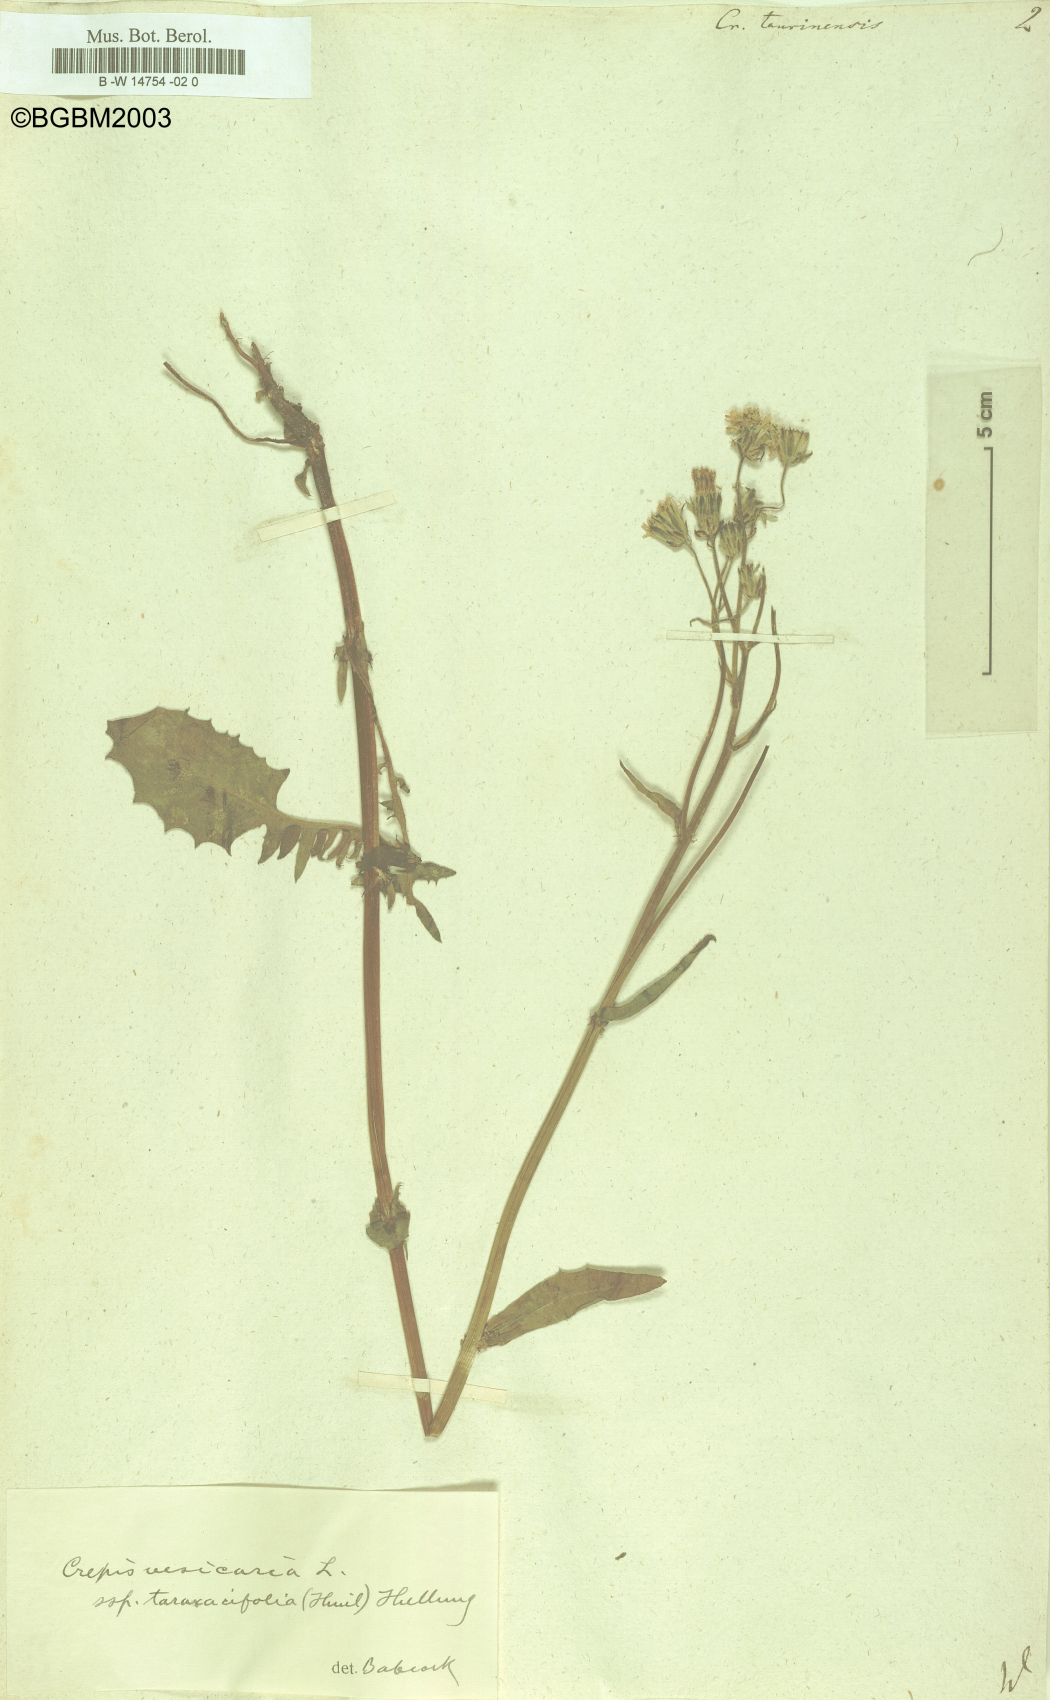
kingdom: Plantae
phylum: Tracheophyta
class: Magnoliopsida
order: Asterales
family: Asteraceae
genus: Crepis
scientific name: Crepis
